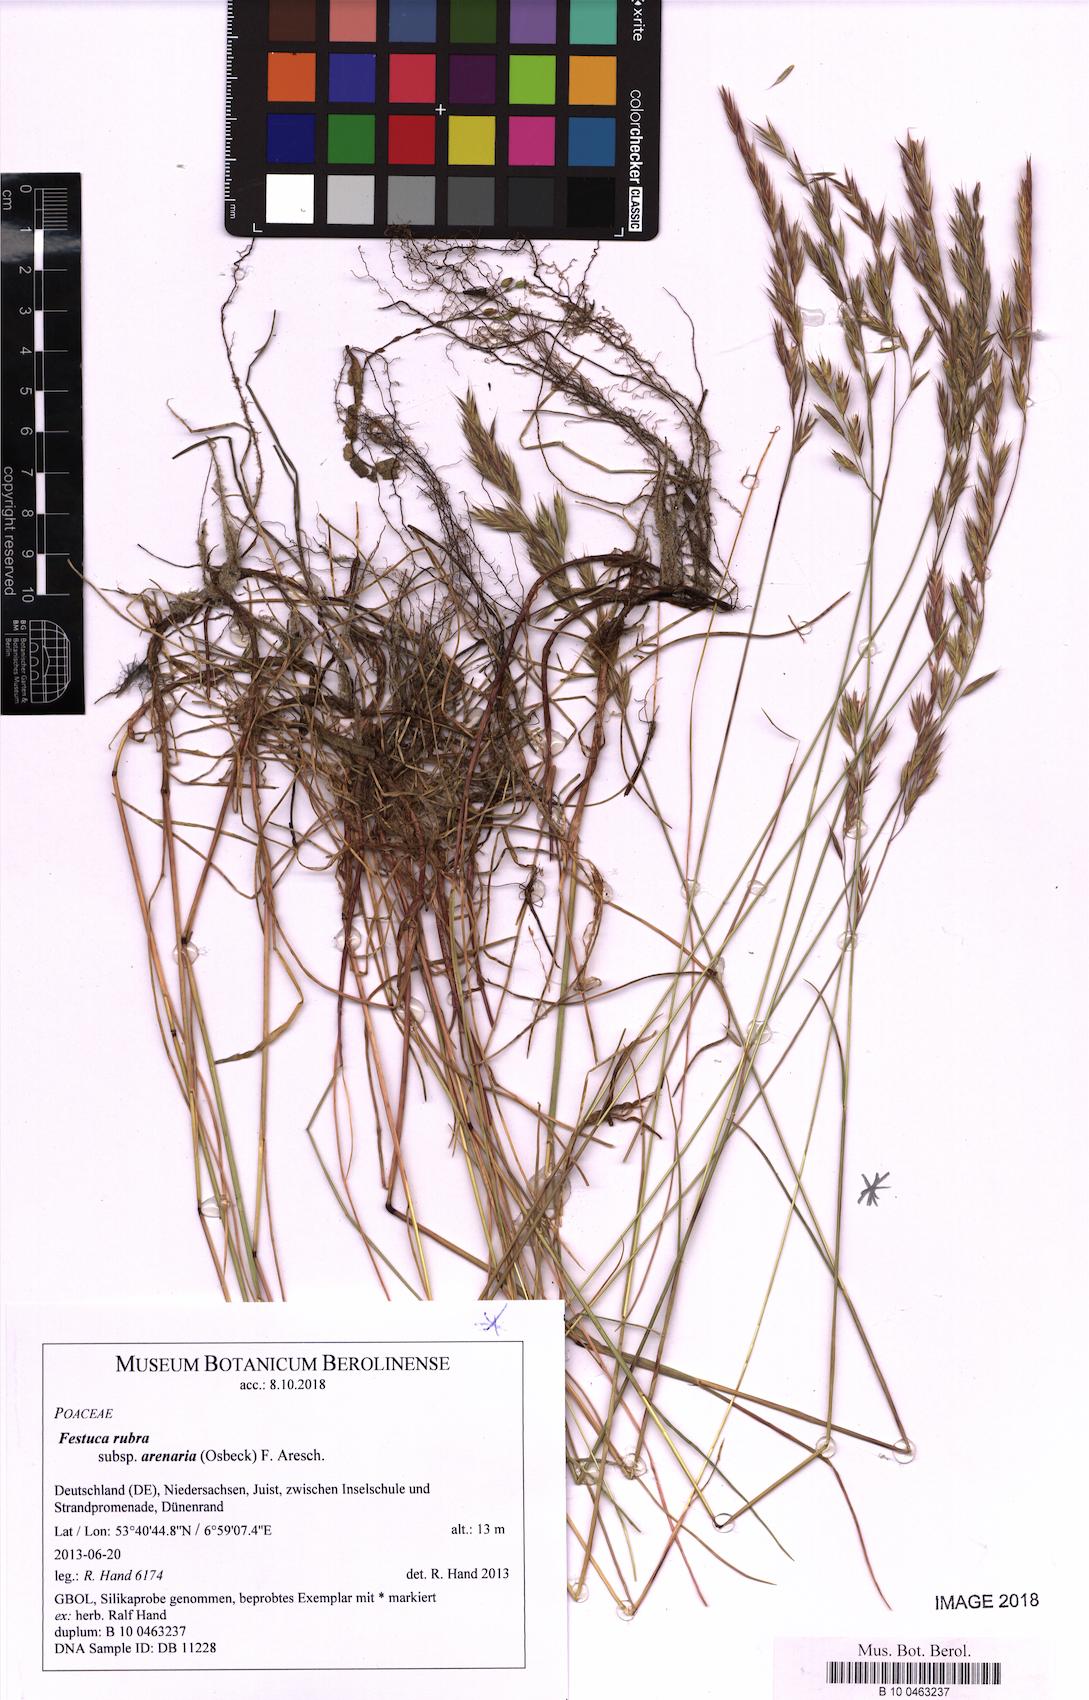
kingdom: Plantae
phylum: Tracheophyta
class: Liliopsida
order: Poales
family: Poaceae
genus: Festuca
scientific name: Festuca rubra
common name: Red fescue
